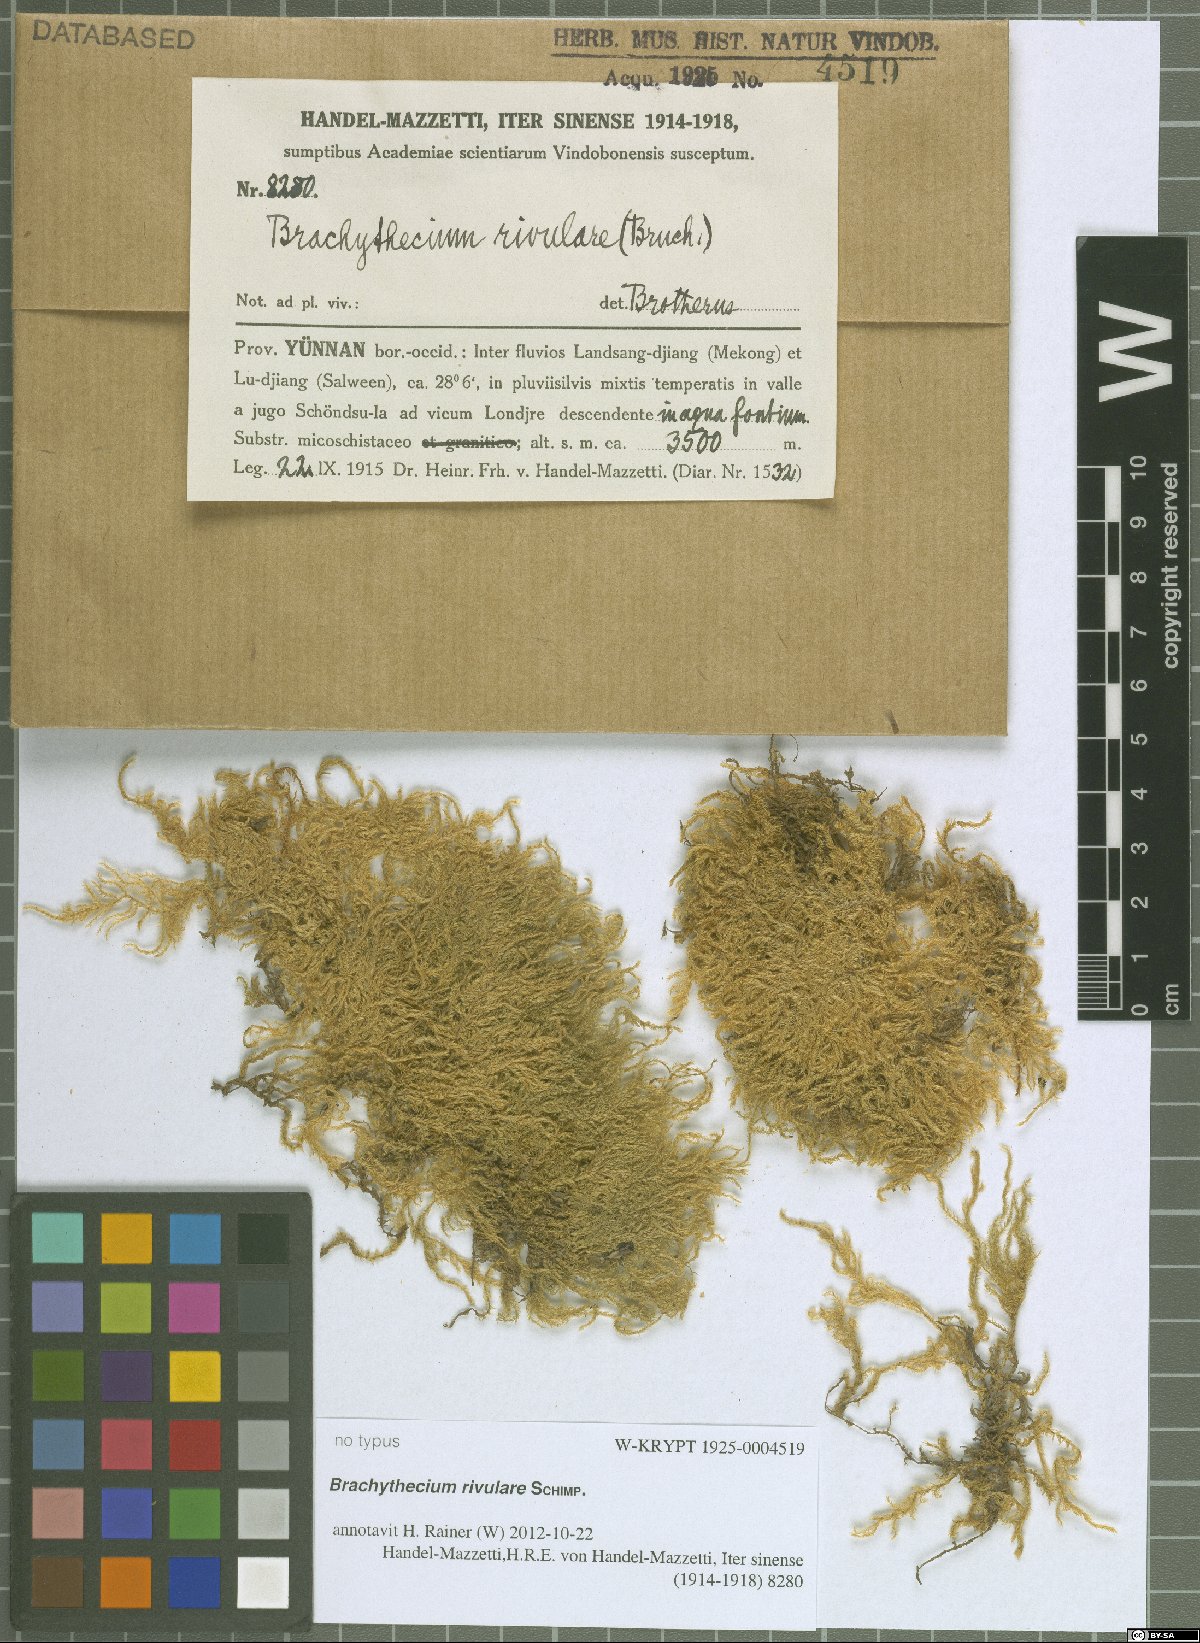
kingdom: Plantae
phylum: Bryophyta
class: Bryopsida
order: Hypnales
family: Brachytheciaceae
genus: Brachythecium
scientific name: Brachythecium rivulare
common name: River ragged moss
